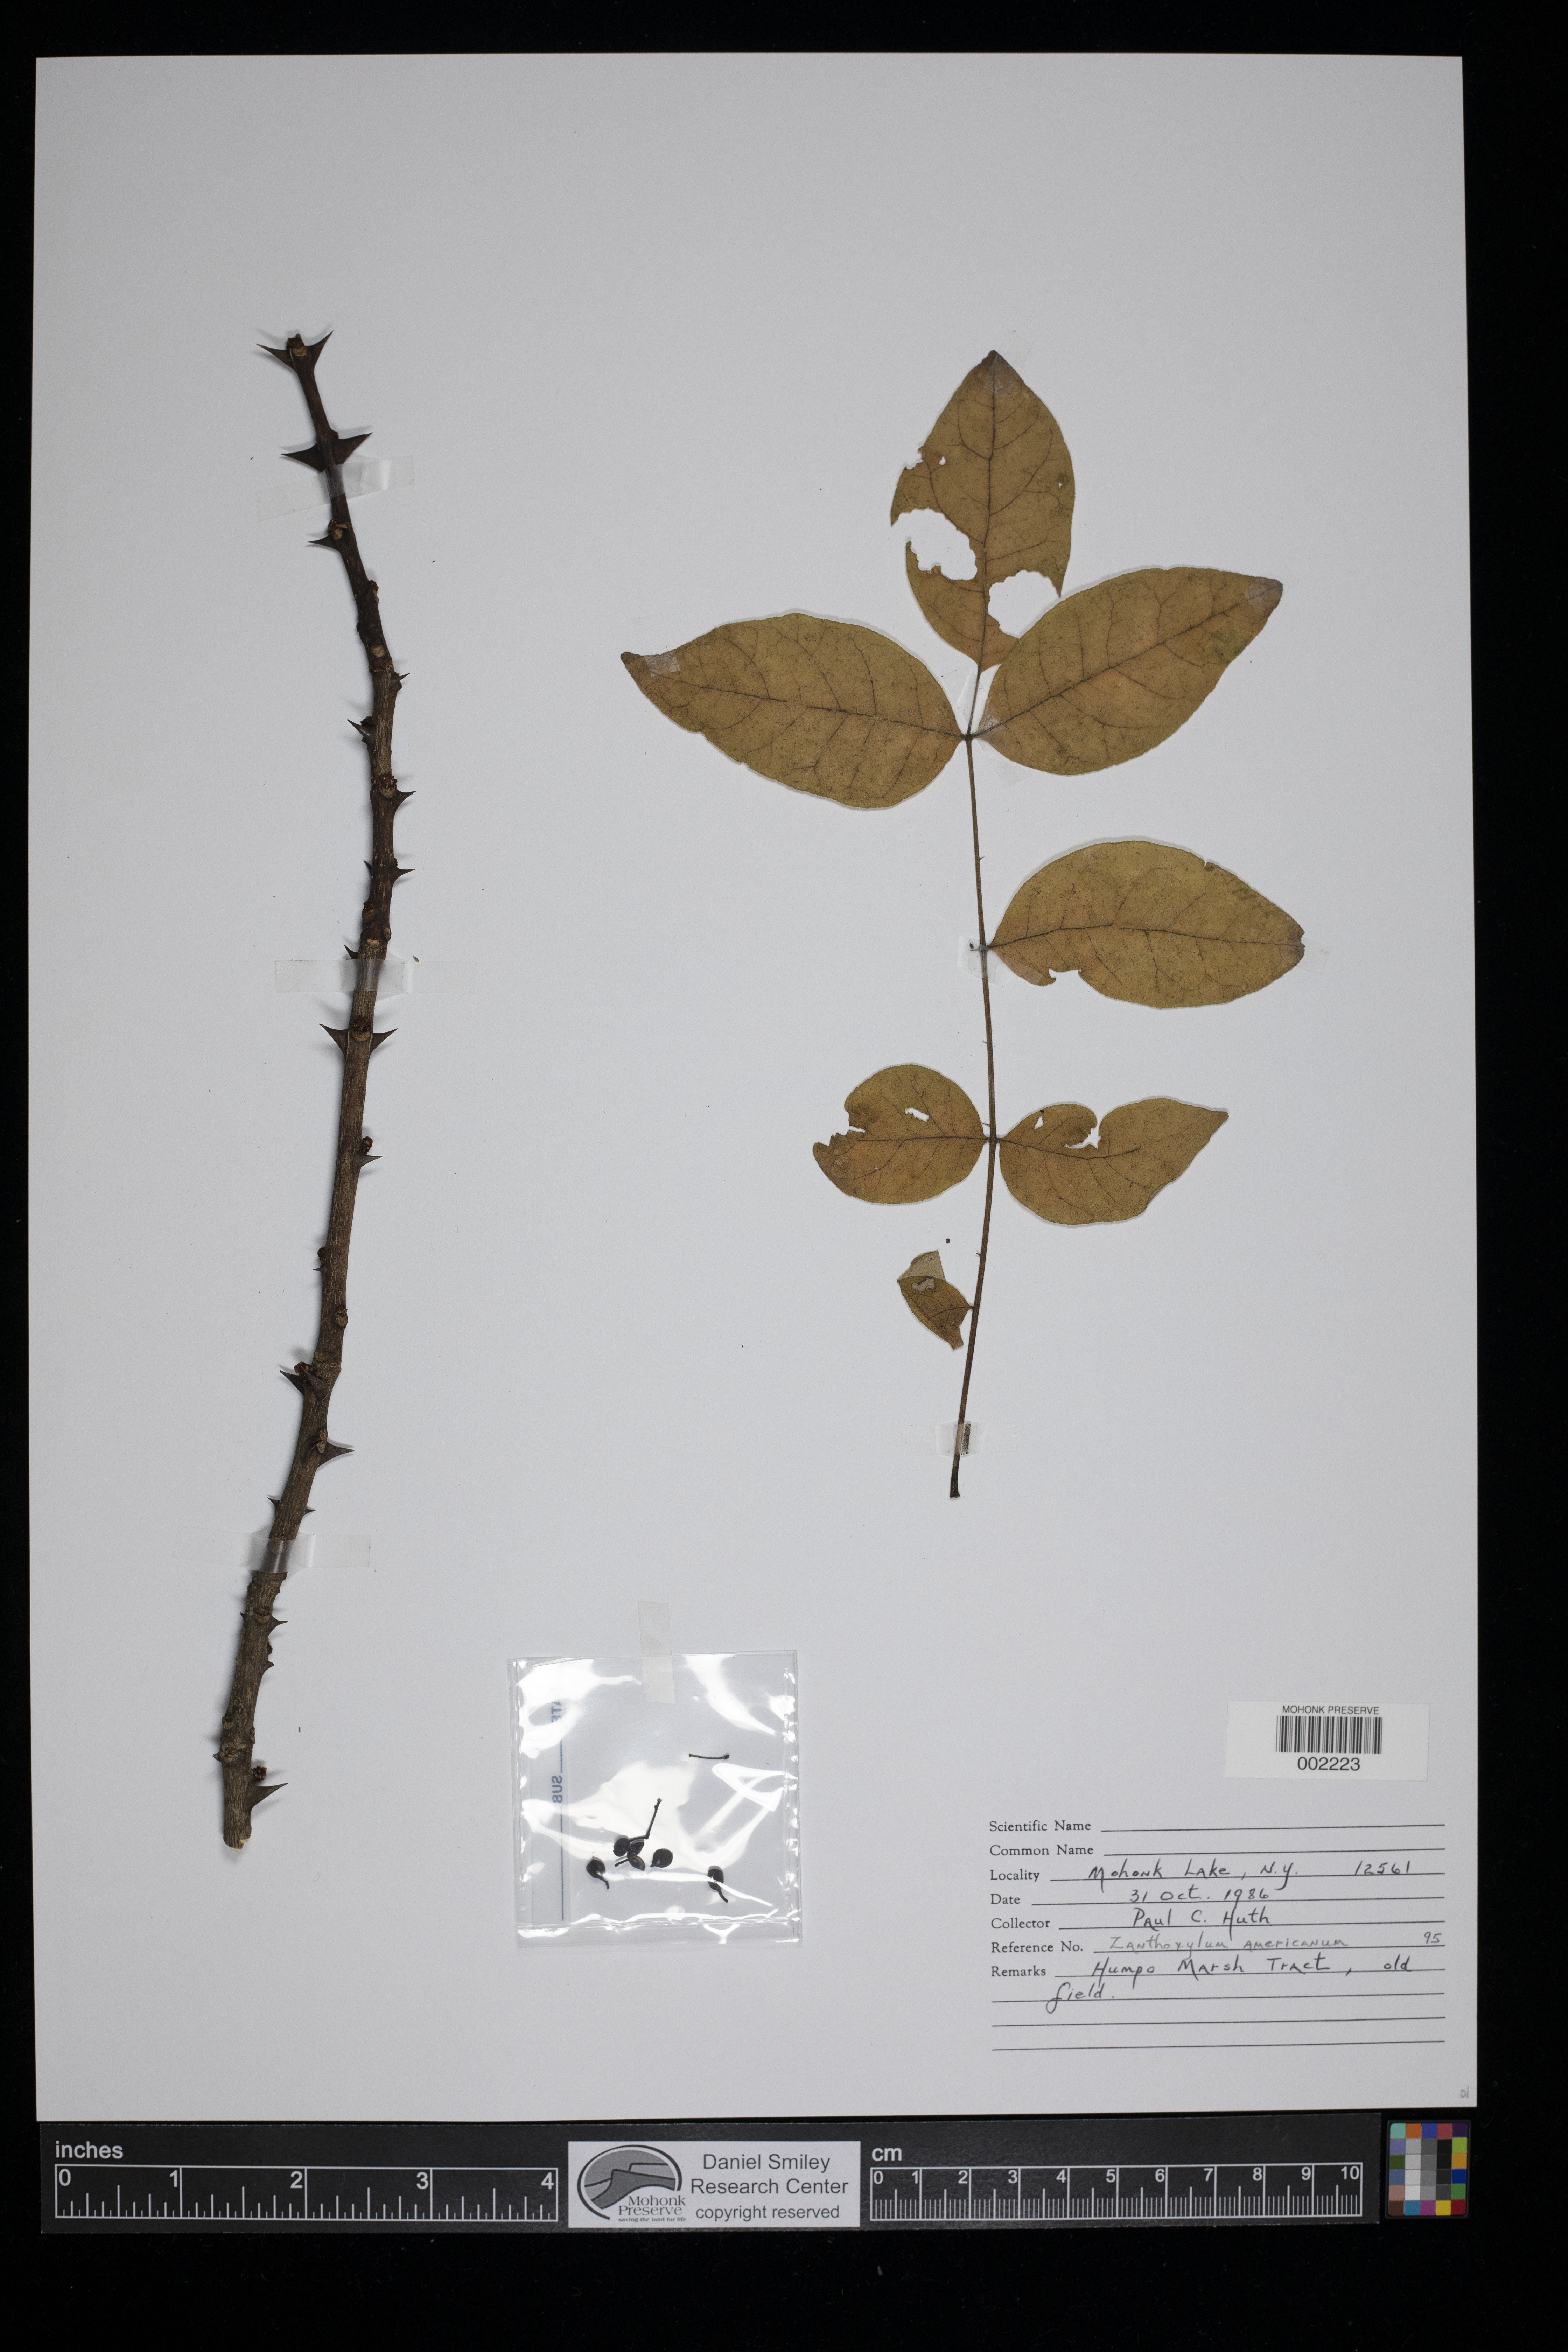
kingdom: Plantae
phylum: Tracheophyta
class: Magnoliopsida
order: Sapindales
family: Rutaceae
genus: Zanthoxylum
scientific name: Zanthoxylum americanum
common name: Northern prickly-ash
